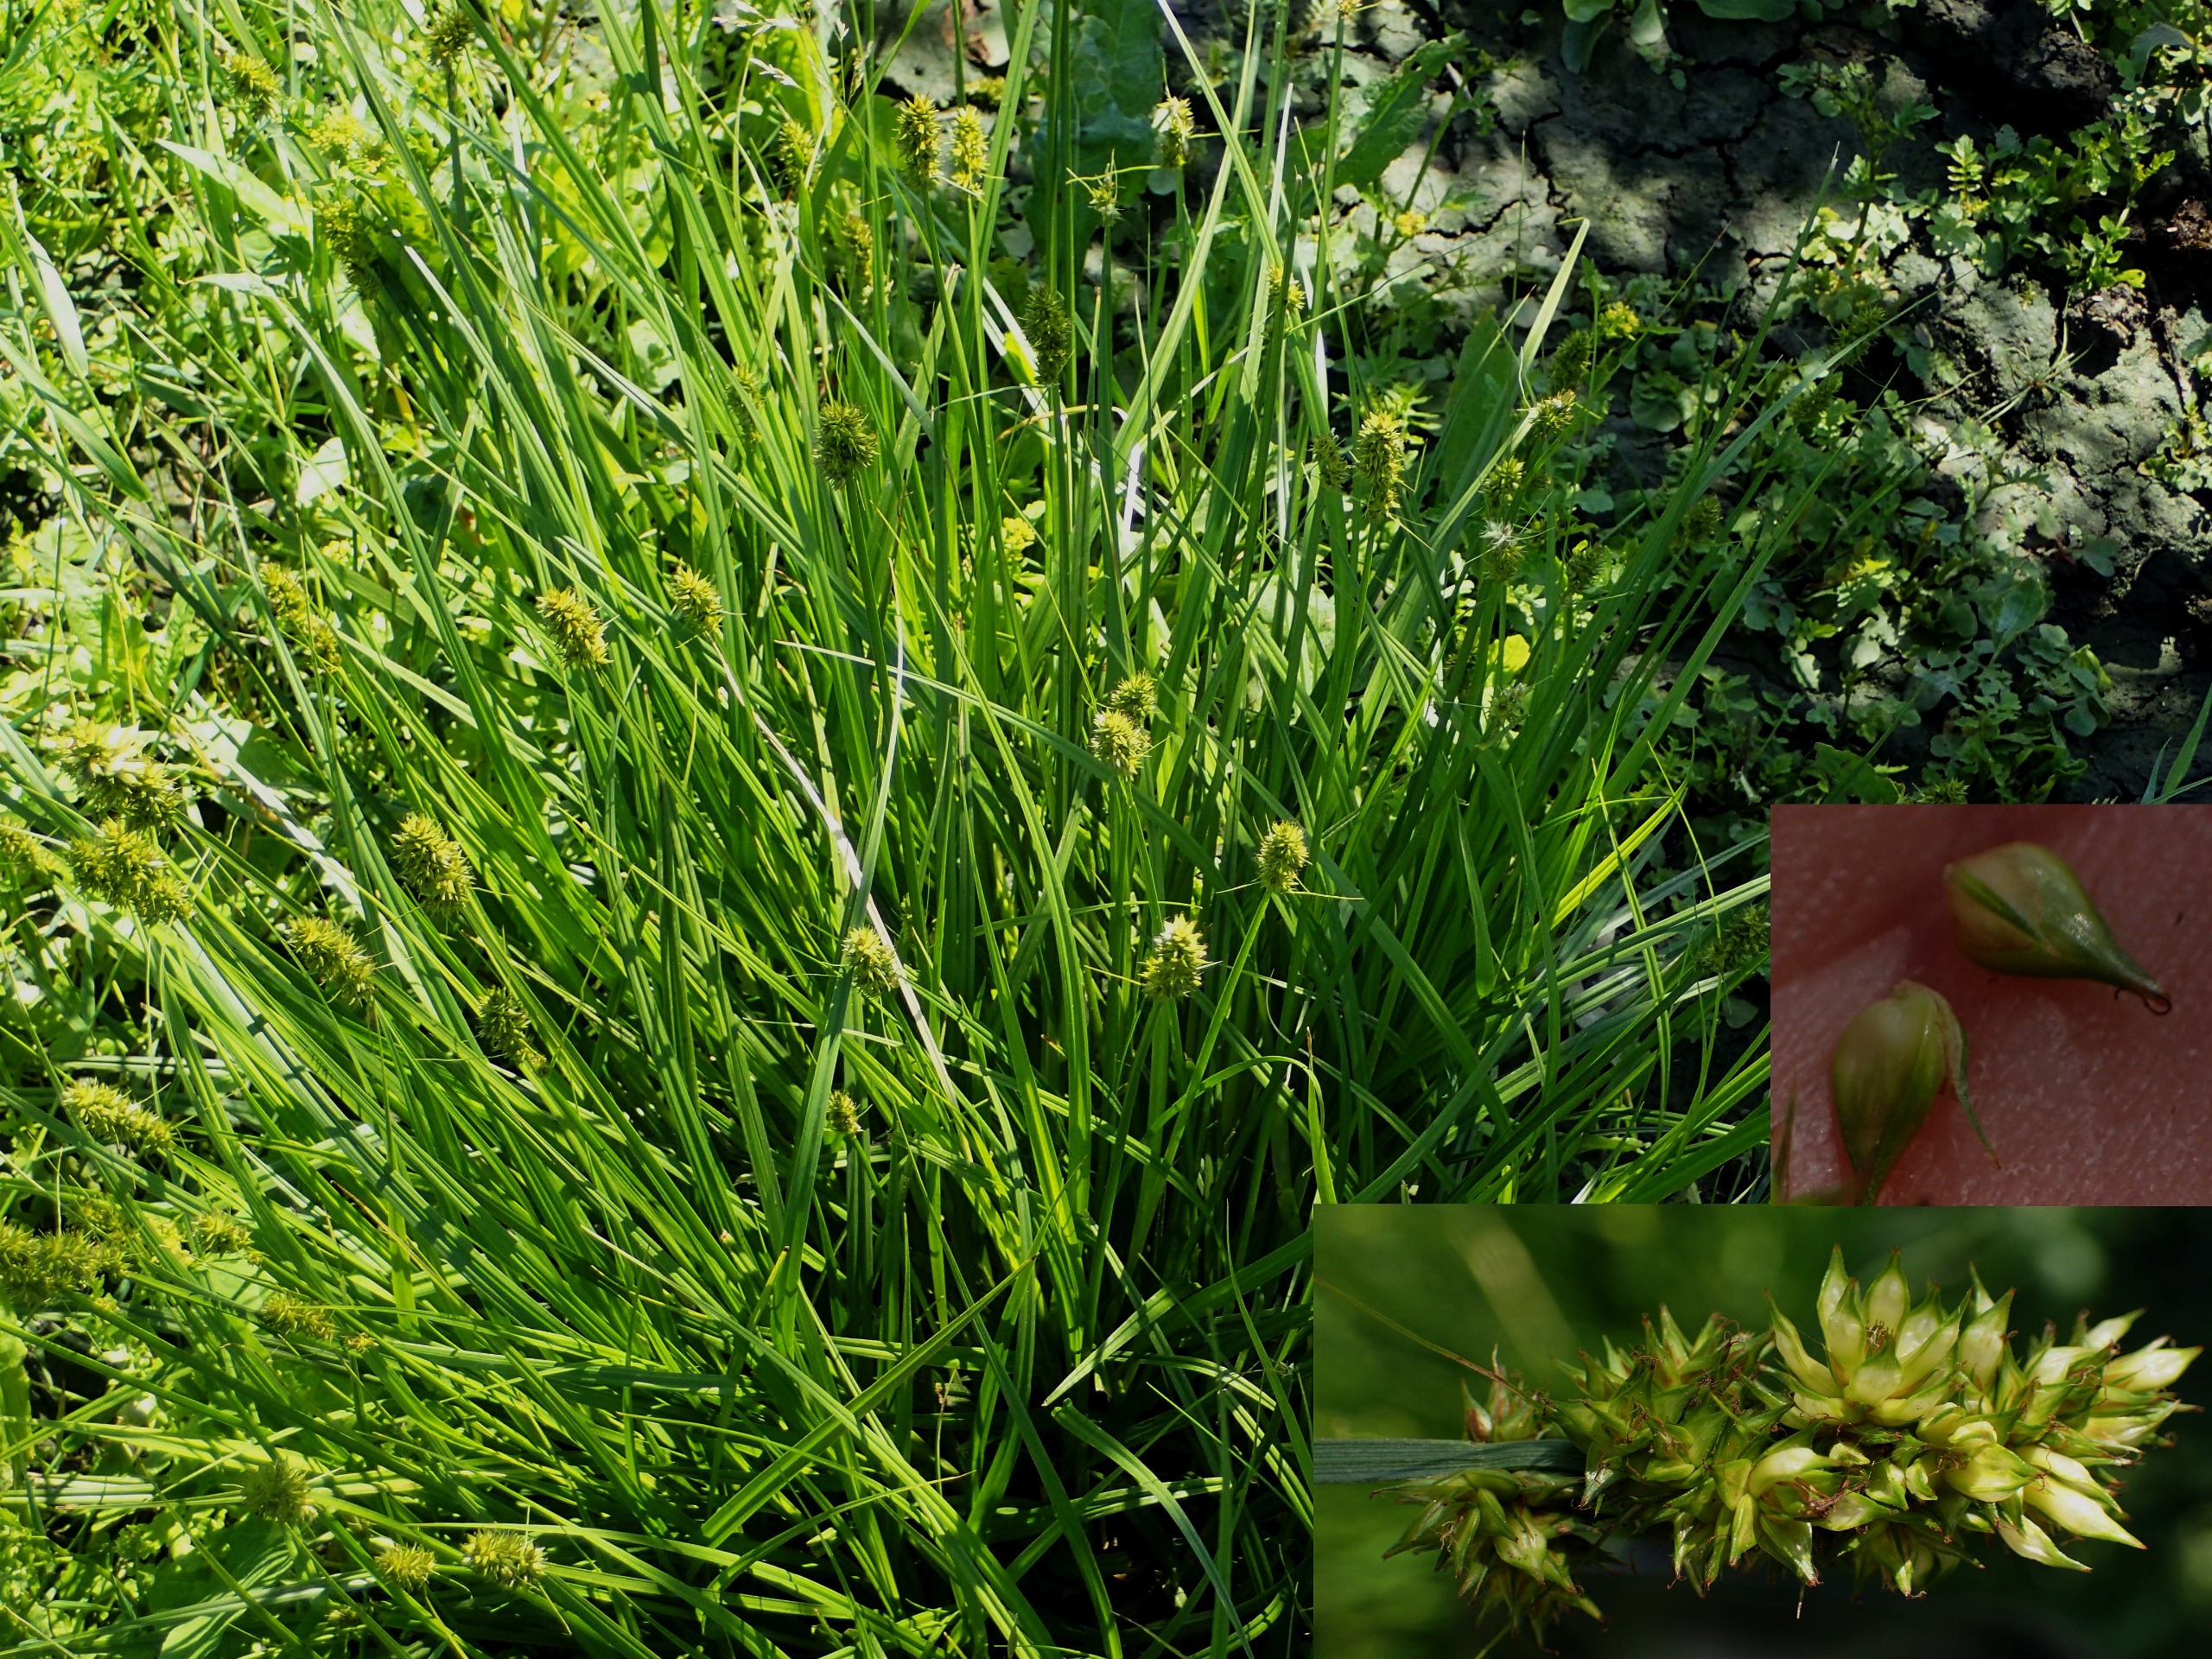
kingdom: Plantae
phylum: Tracheophyta
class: Liliopsida
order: Poales
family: Cyperaceae
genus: Carex
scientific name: Carex otrubae
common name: Sylt-star
